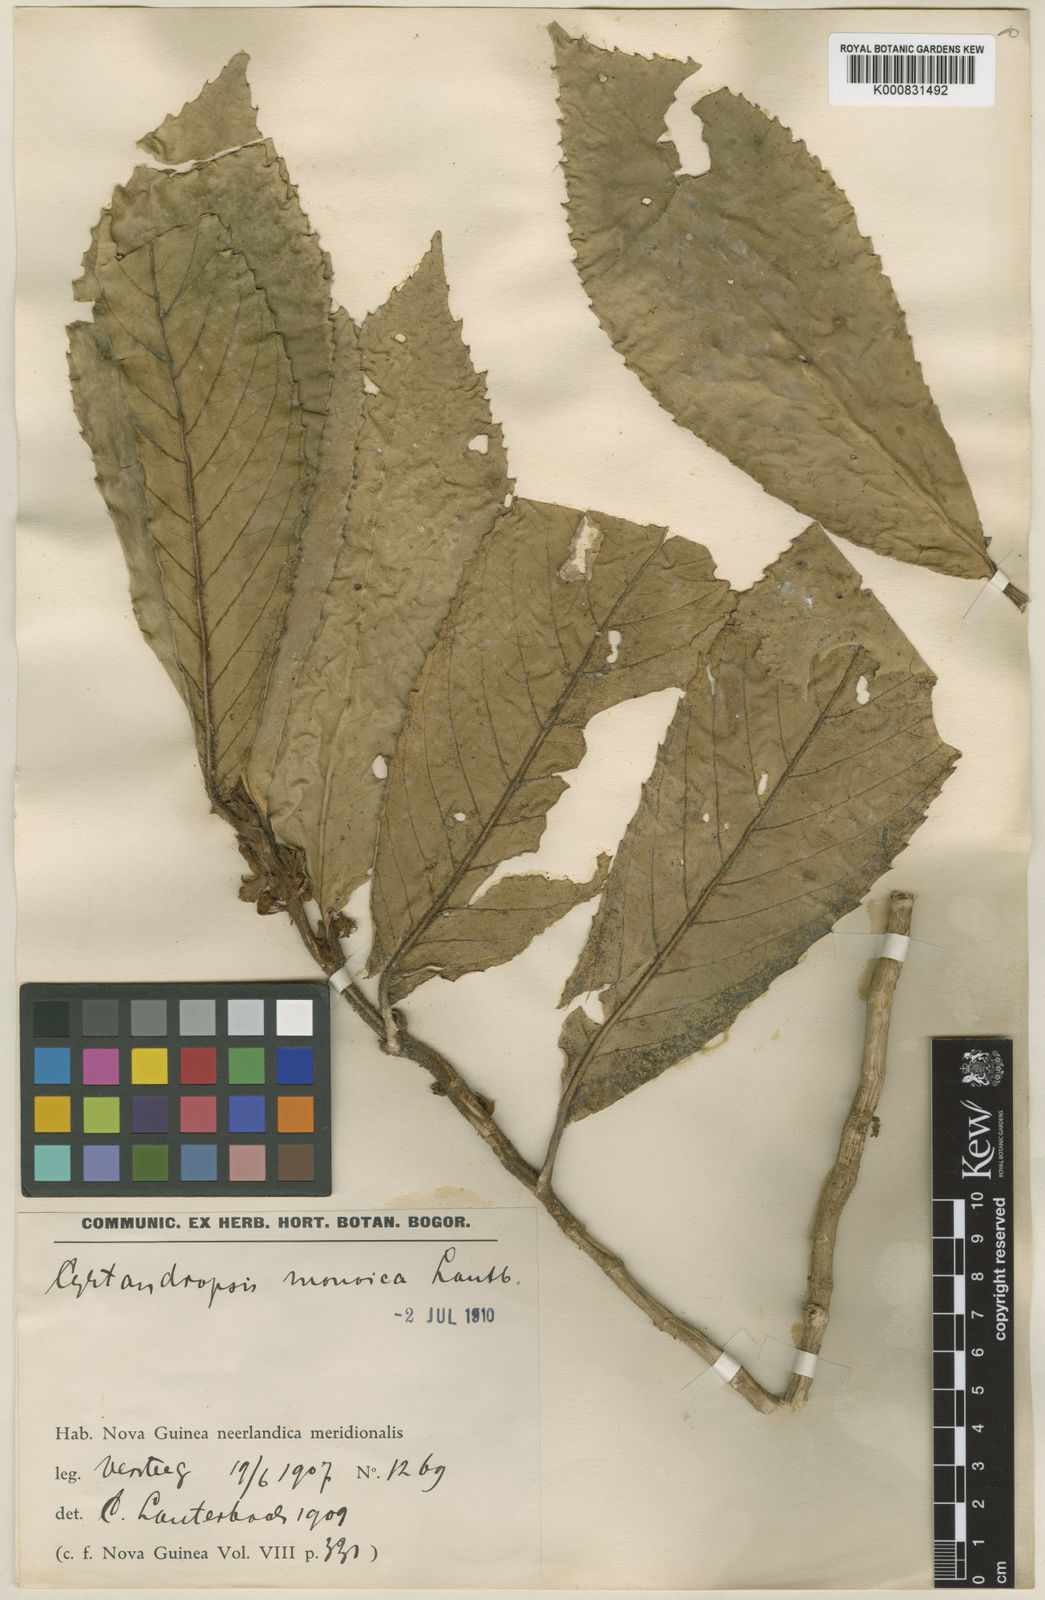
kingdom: Plantae
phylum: Tracheophyta
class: Magnoliopsida
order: Lamiales
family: Gesneriaceae
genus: Cyrtandra
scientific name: Cyrtandra
